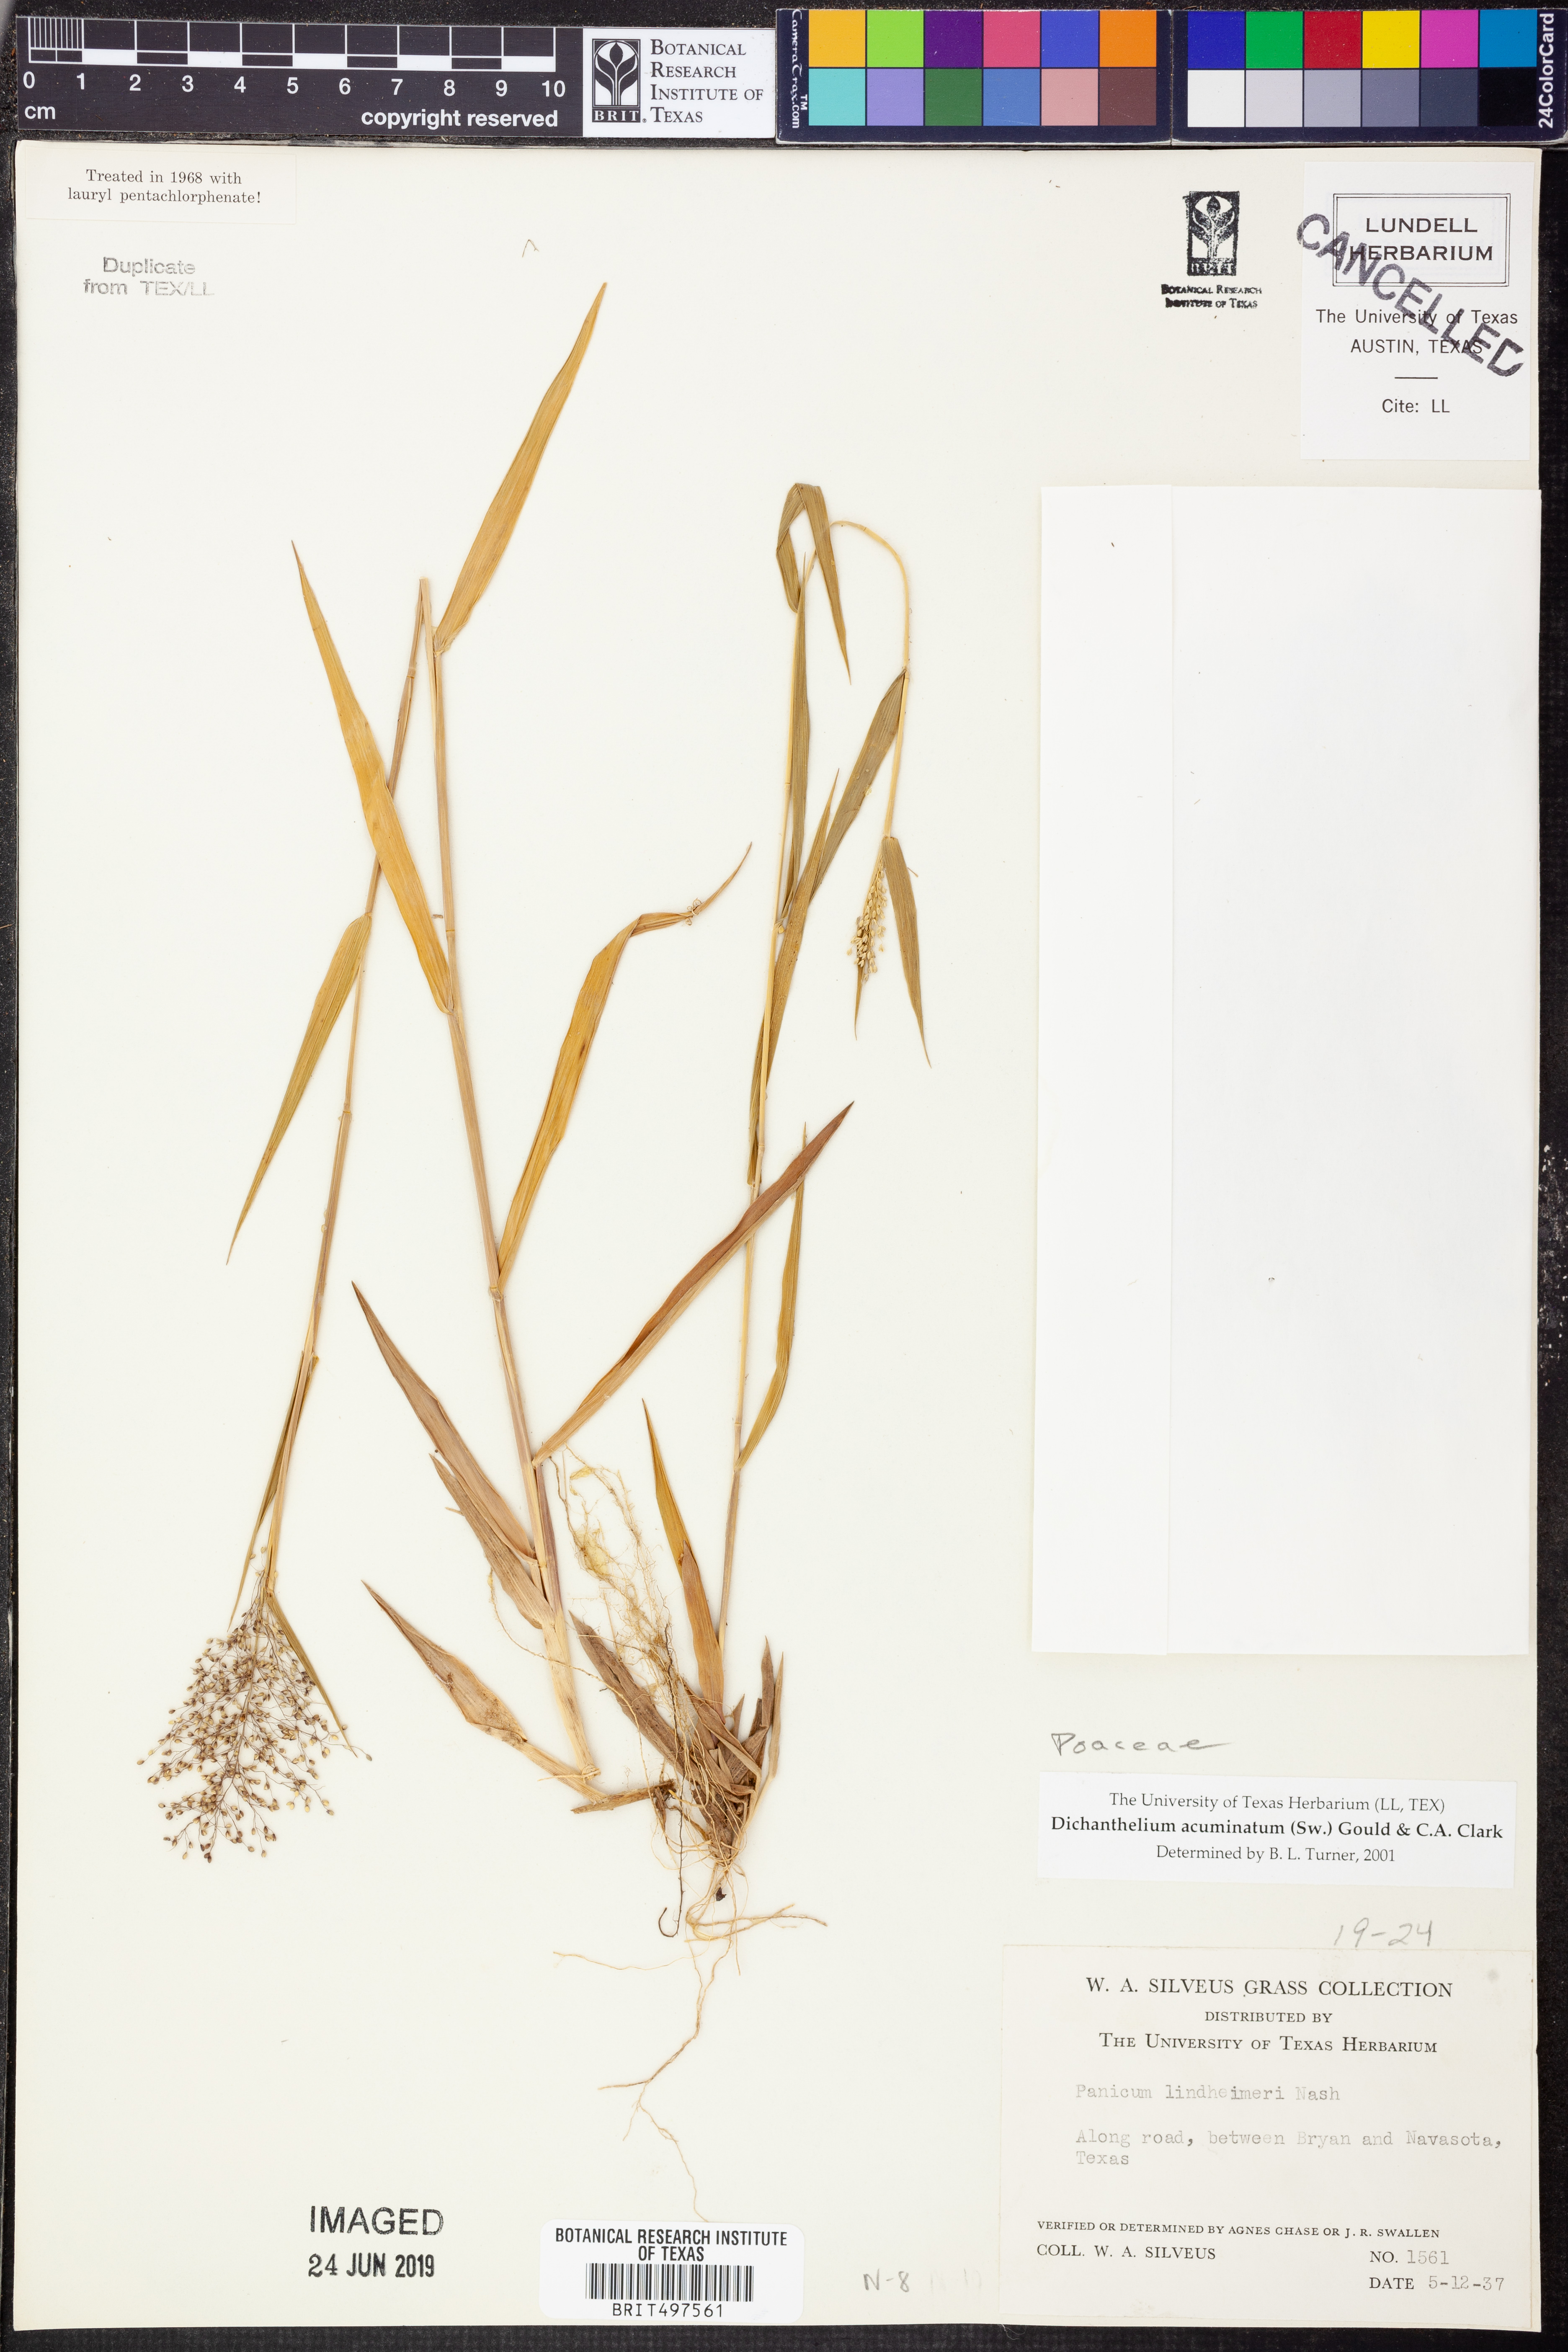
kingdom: Plantae
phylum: Tracheophyta
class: Liliopsida
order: Poales
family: Poaceae
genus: Dichanthelium
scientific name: Dichanthelium acuminatum
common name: Hairy panic grass
